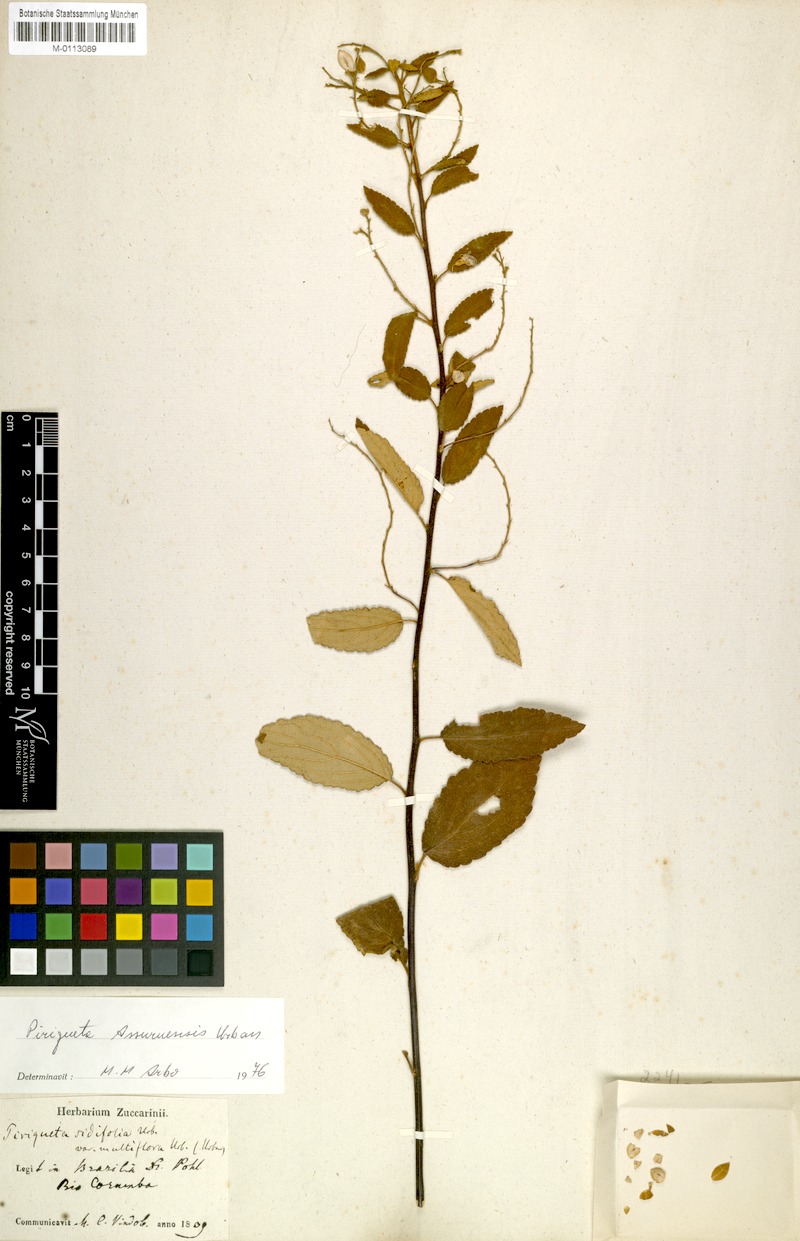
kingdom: Plantae
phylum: Tracheophyta
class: Magnoliopsida
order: Malpighiales
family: Turneraceae
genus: Piriqueta
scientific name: Piriqueta assuruensis
